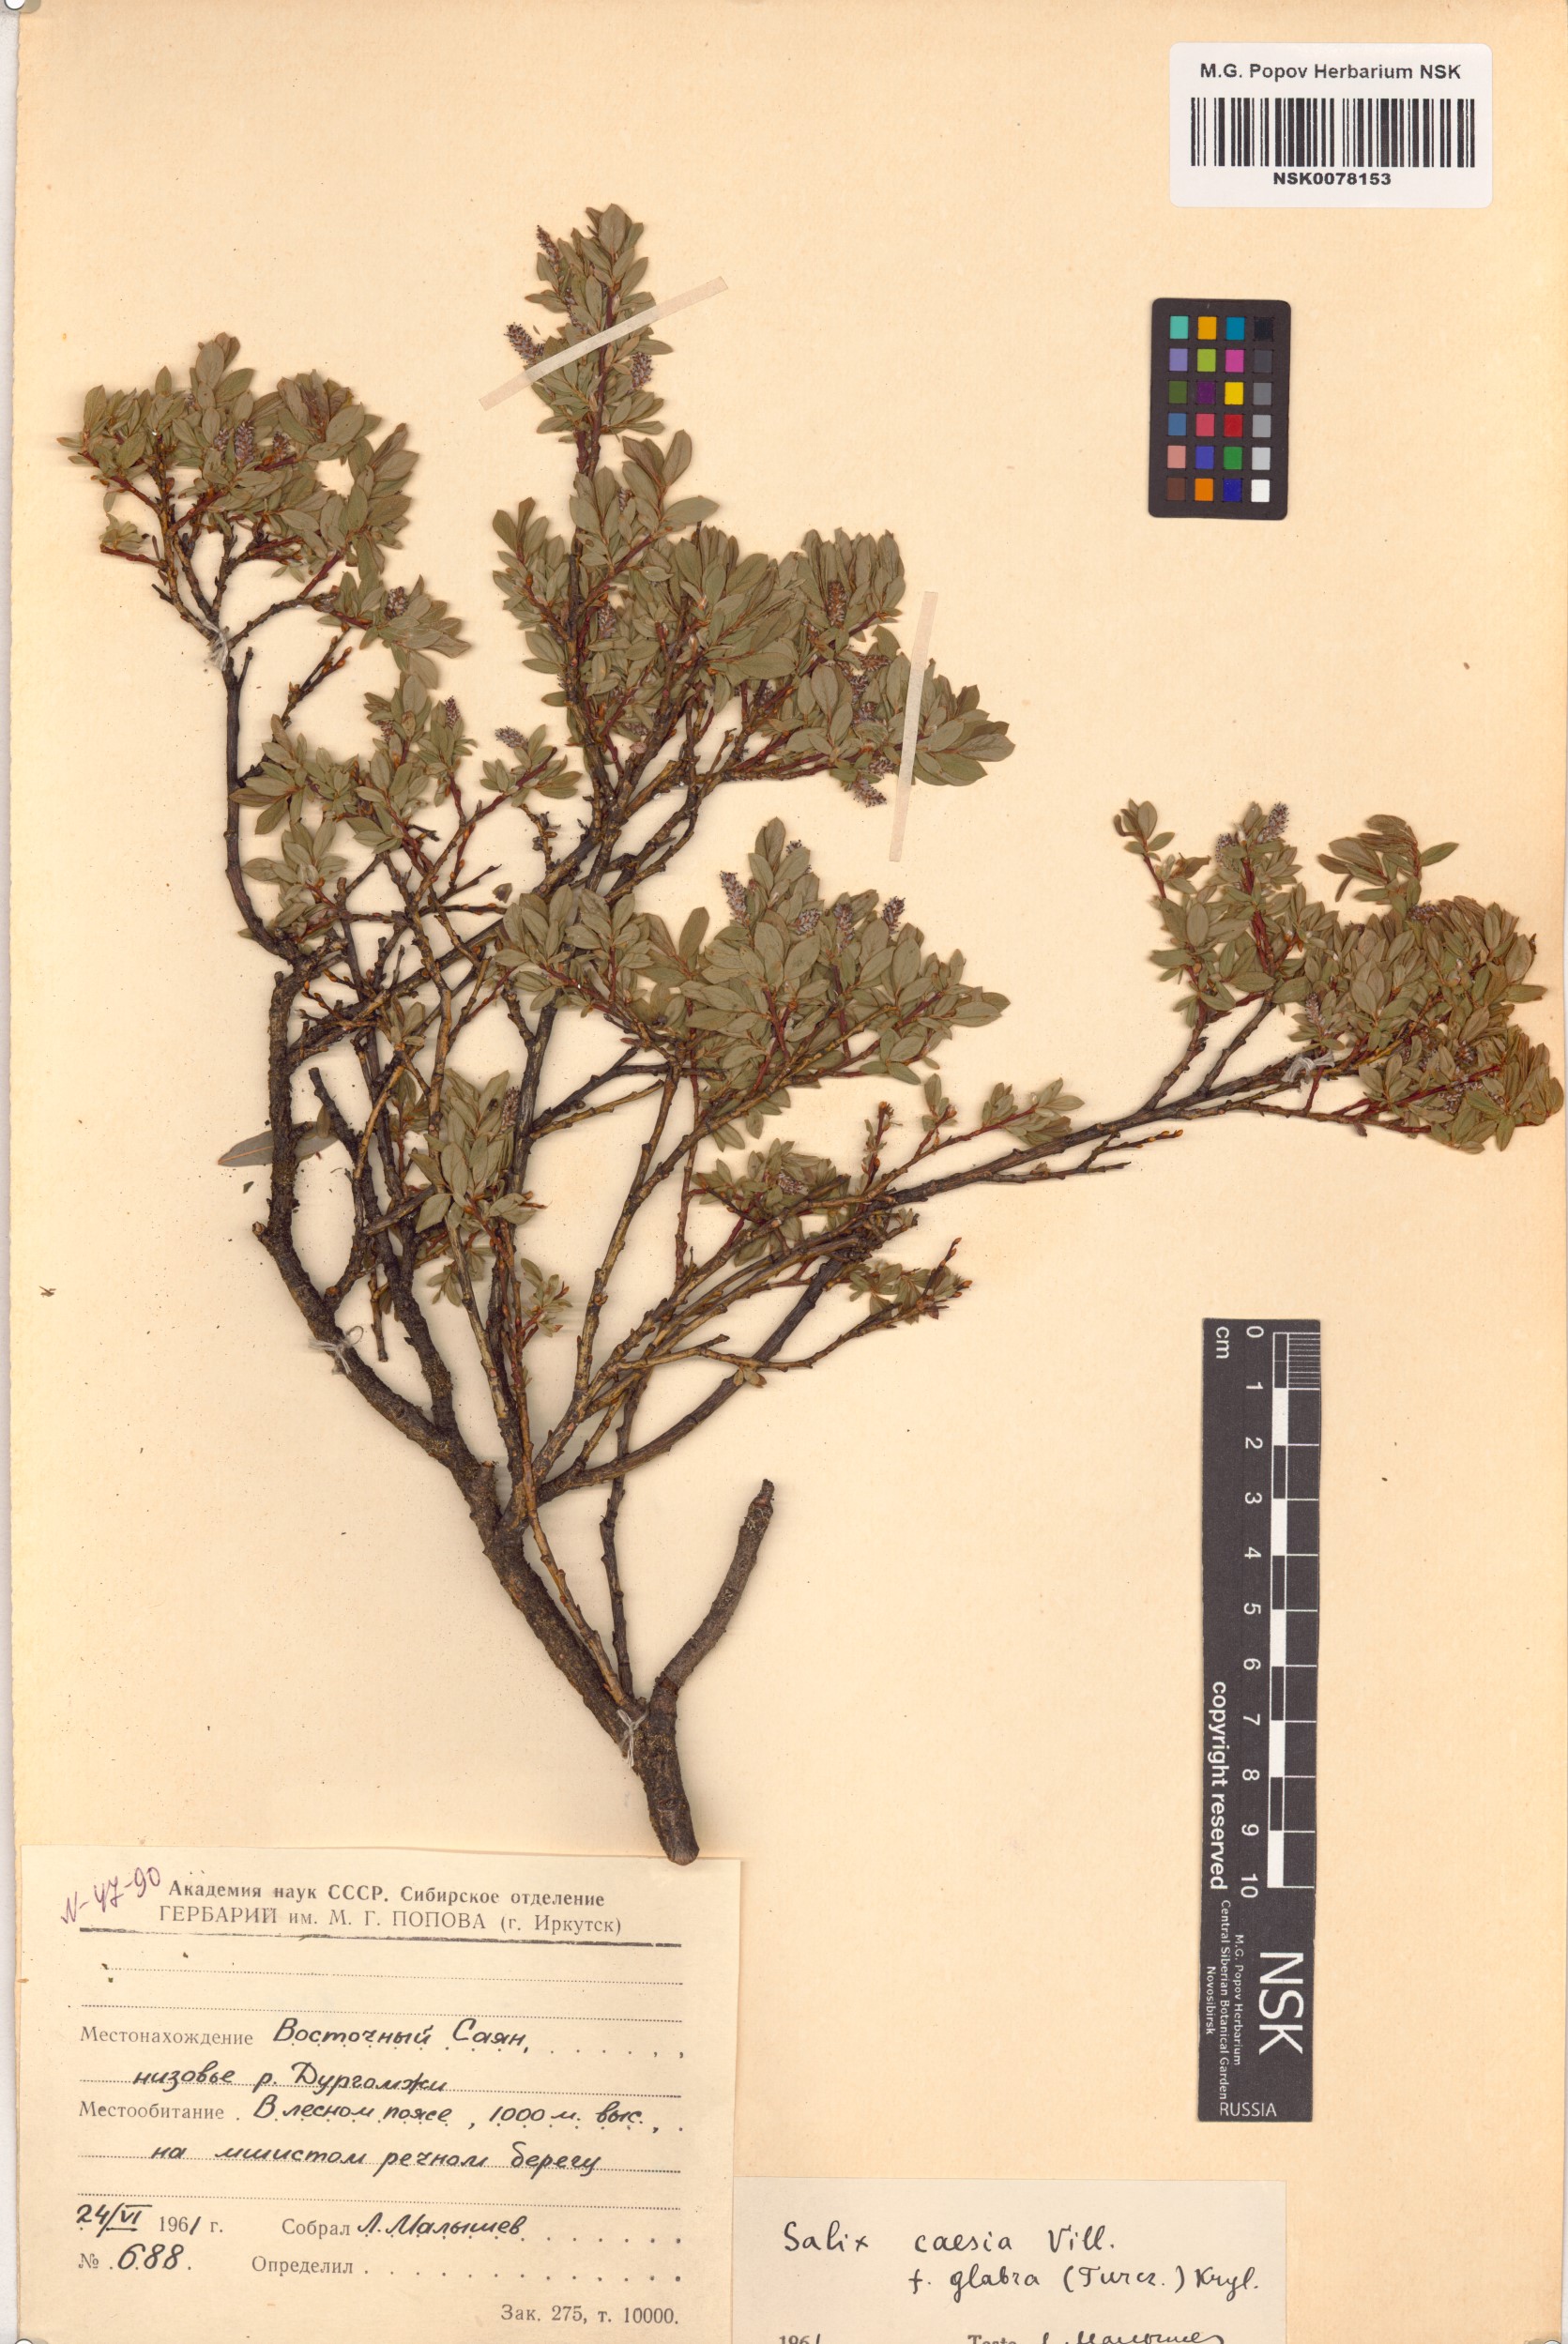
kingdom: Plantae
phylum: Tracheophyta
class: Magnoliopsida
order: Malpighiales
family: Salicaceae
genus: Salix
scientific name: Salix caesia
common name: Blue willow
